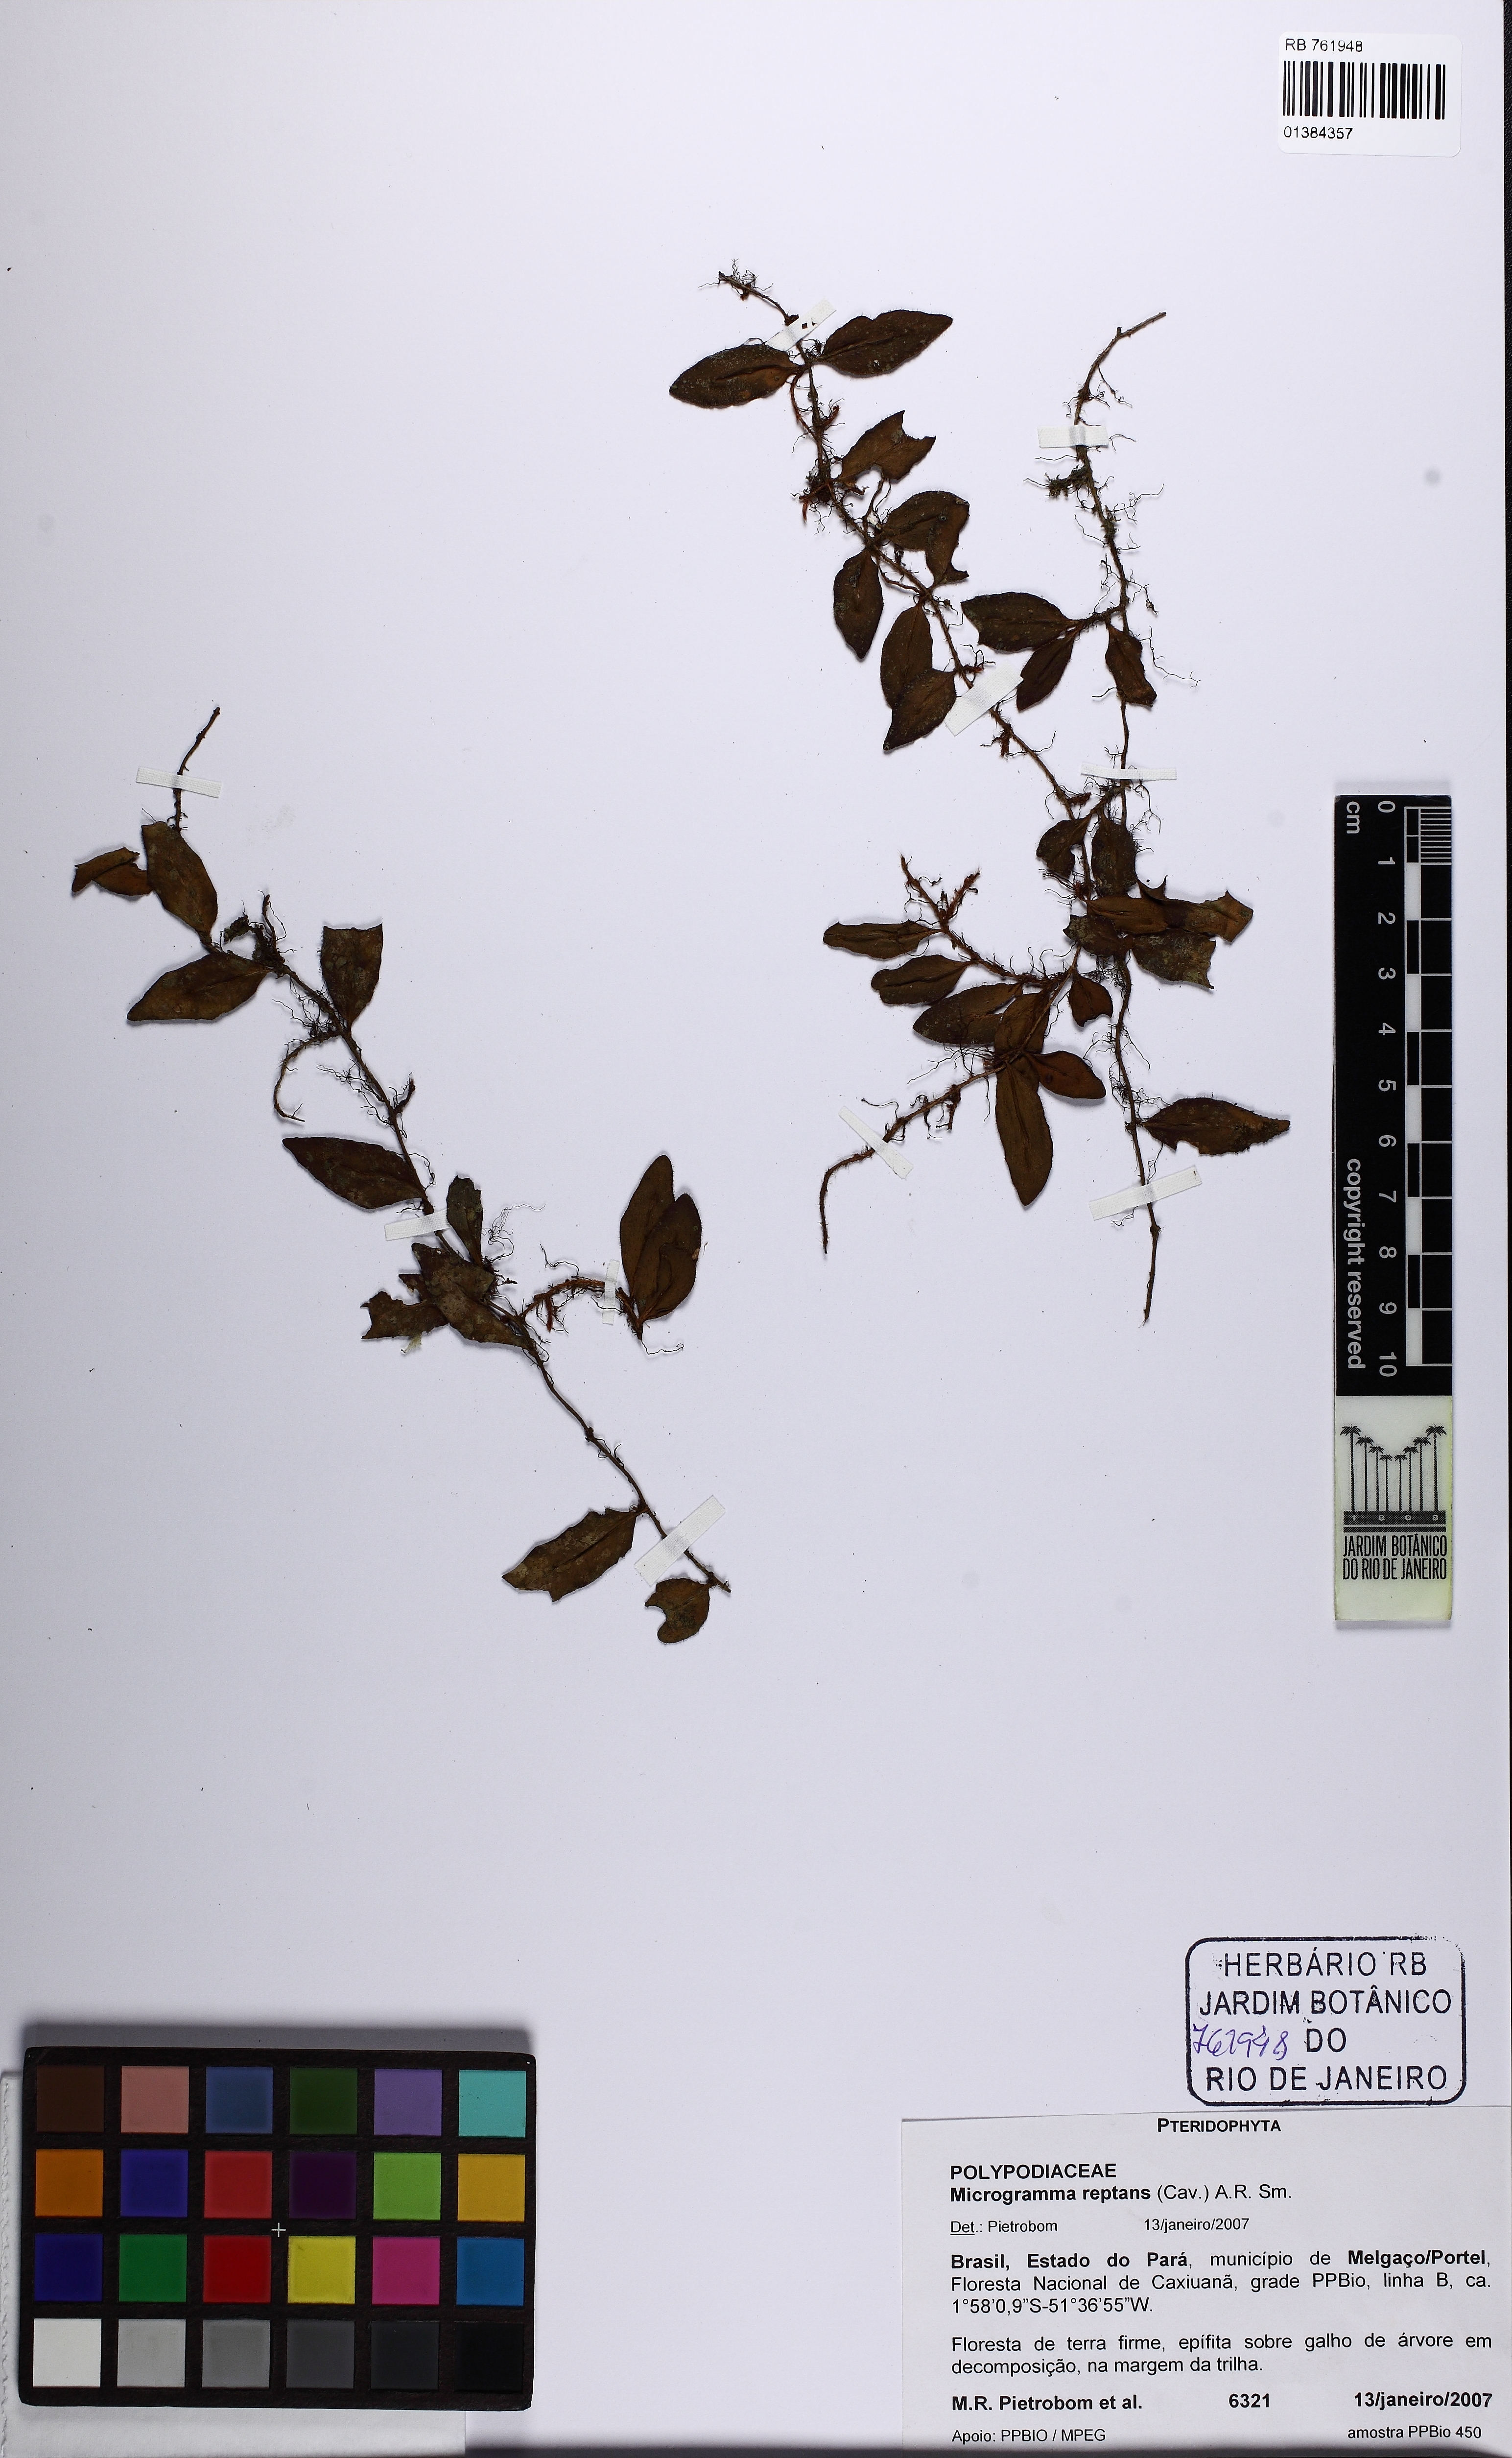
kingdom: Plantae
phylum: Tracheophyta
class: Polypodiopsida
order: Polypodiales
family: Polypodiaceae
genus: Microgramma
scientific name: Microgramma reptans
